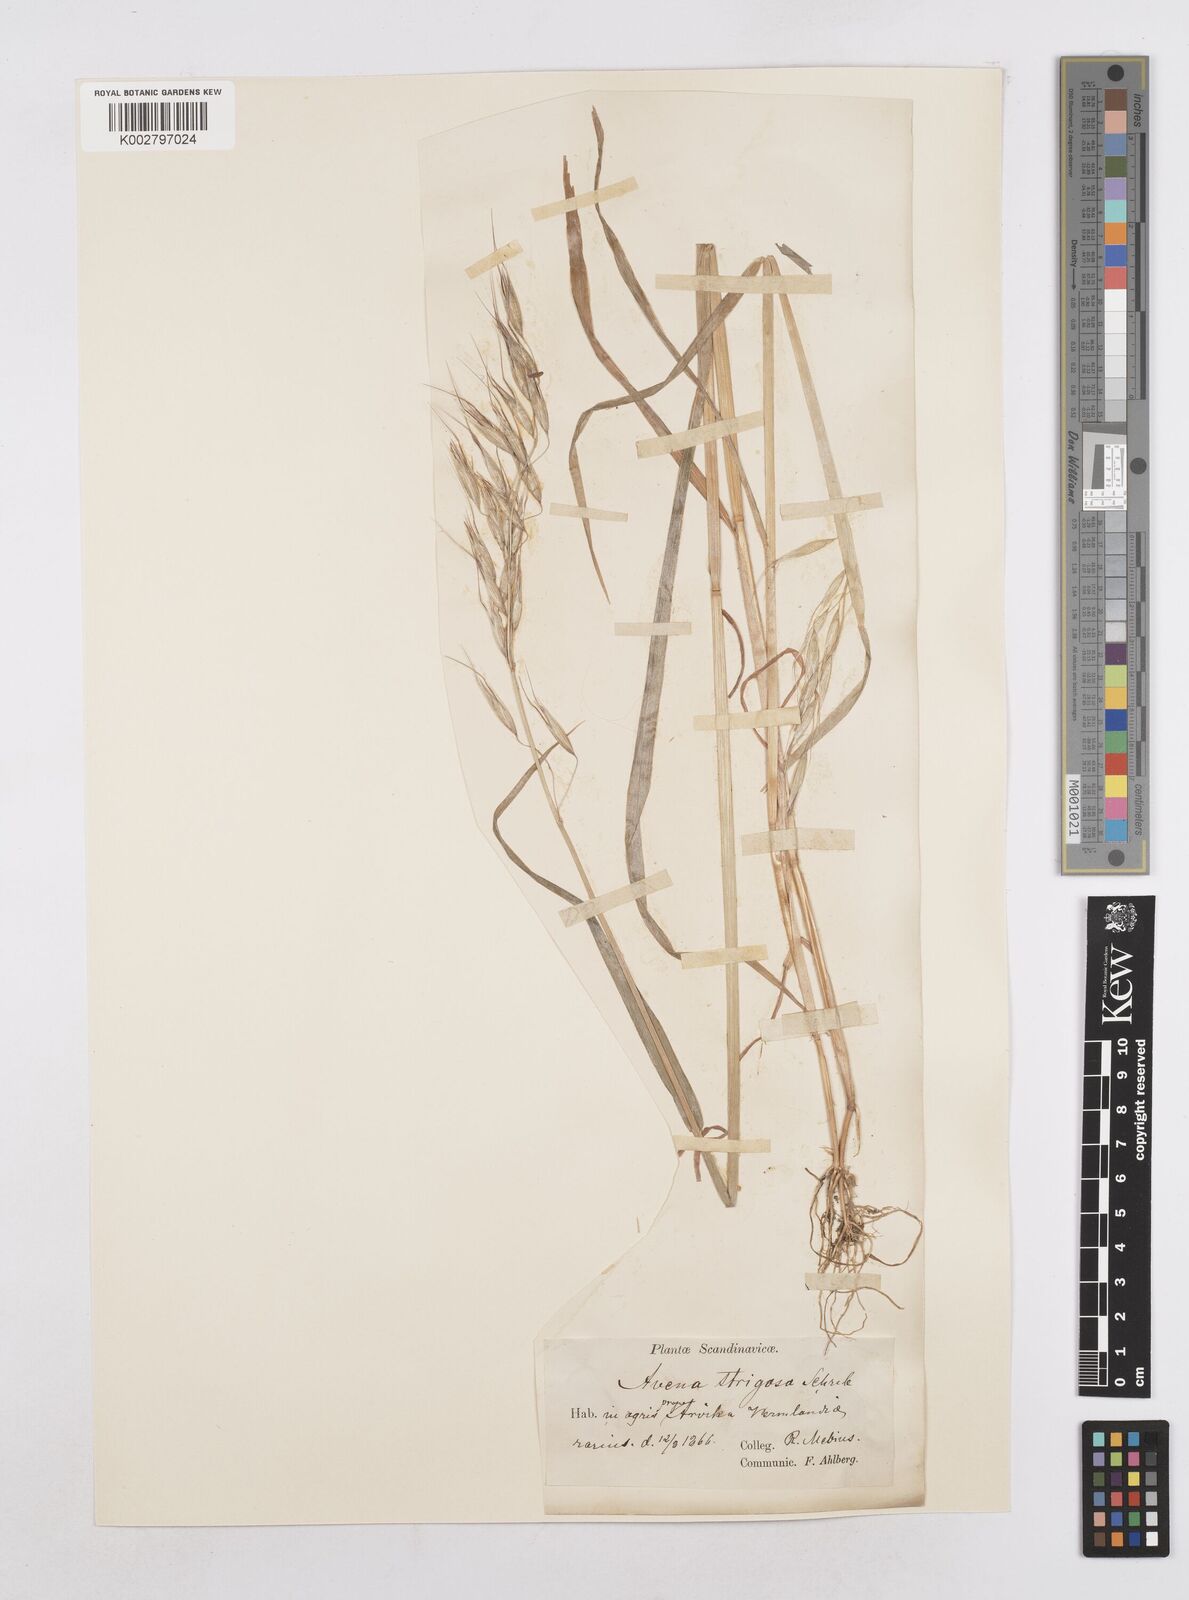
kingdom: Plantae
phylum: Tracheophyta
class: Liliopsida
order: Poales
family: Poaceae
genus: Avena
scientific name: Avena strigosa
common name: Bristle oat
